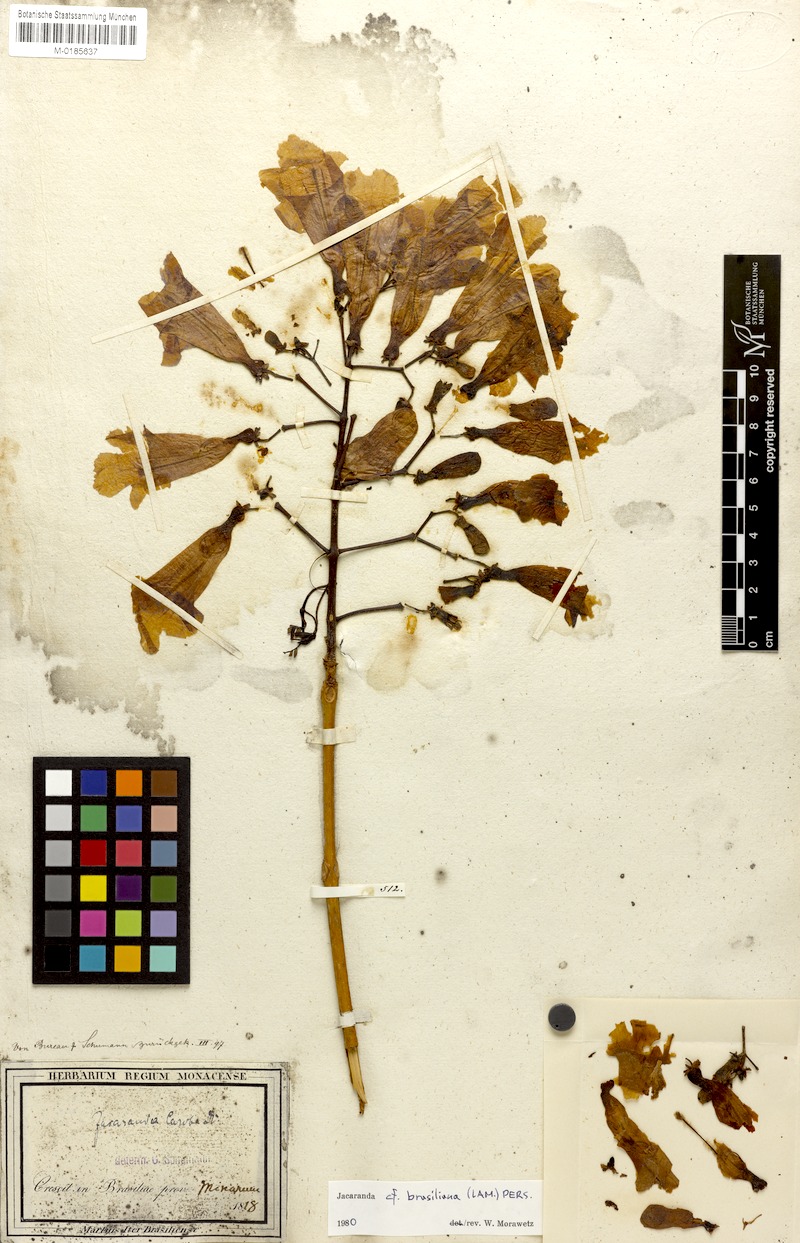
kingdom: Plantae
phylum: Tracheophyta
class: Magnoliopsida
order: Lamiales
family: Bignoniaceae
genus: Jacaranda
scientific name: Jacaranda brasiliana
